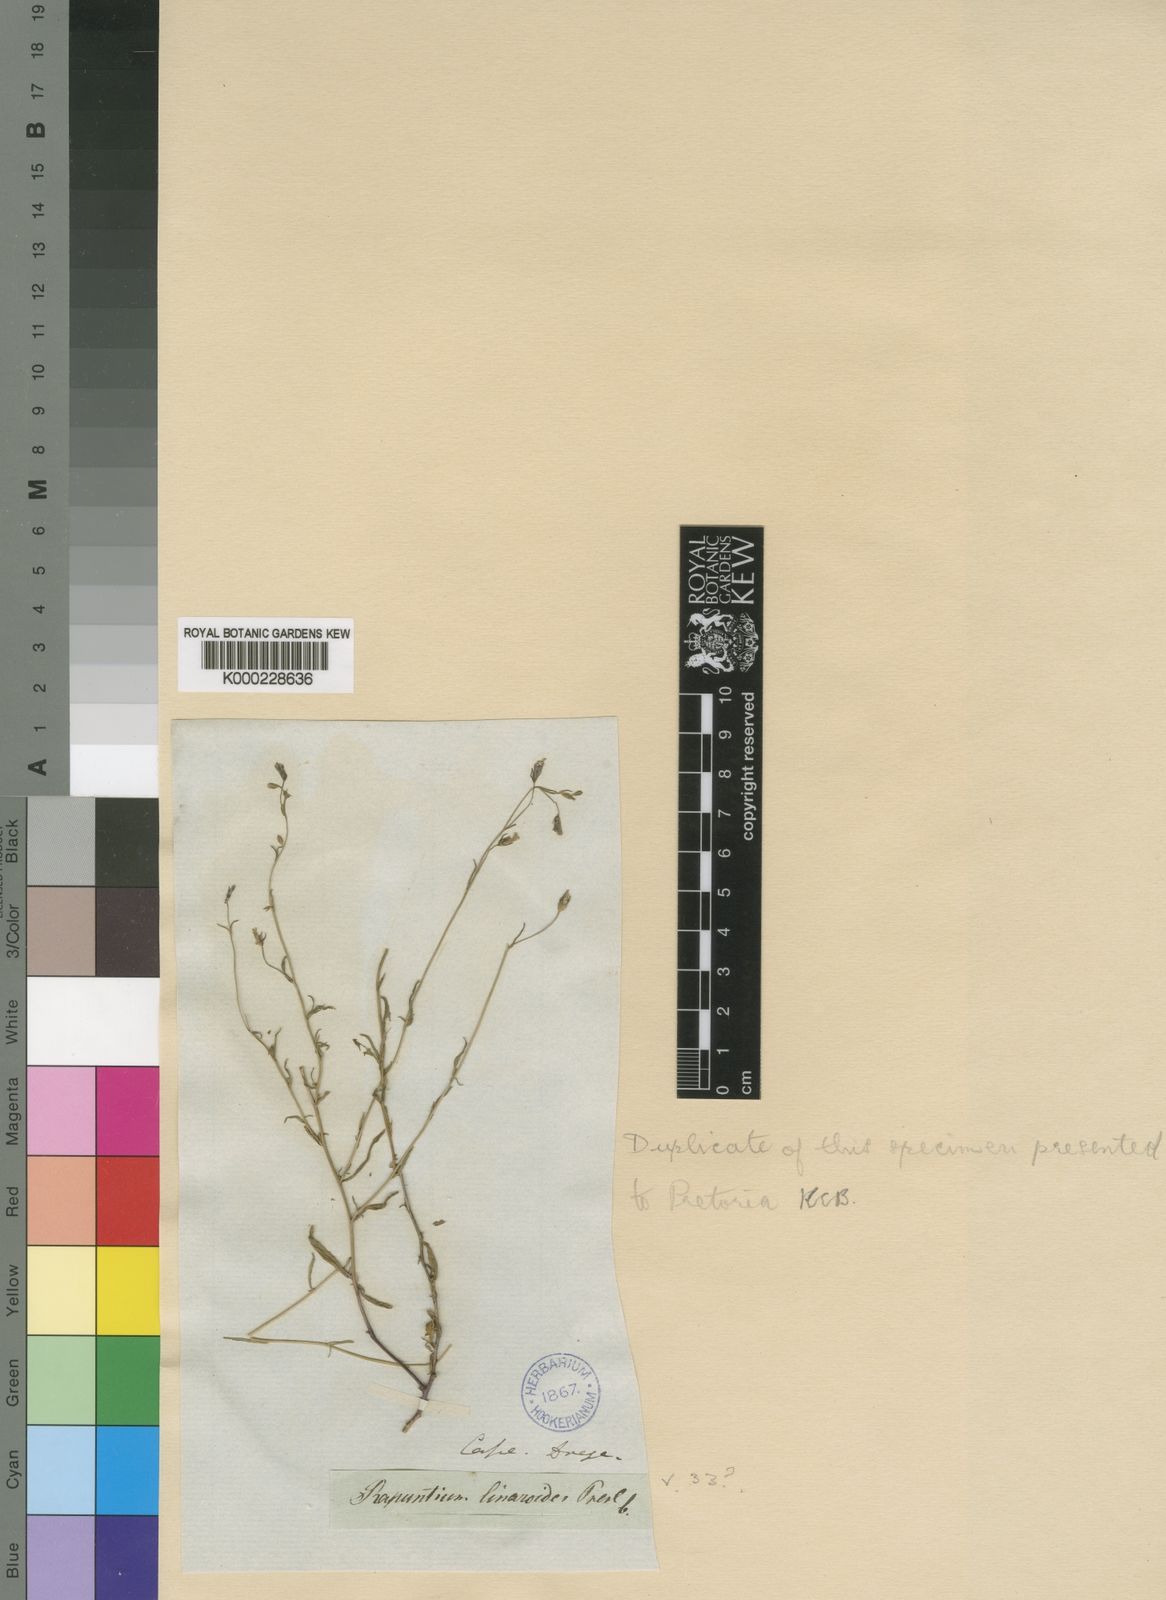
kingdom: Plantae
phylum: Tracheophyta
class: Magnoliopsida
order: Asterales
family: Campanulaceae
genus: Lobelia
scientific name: Lobelia linarioides
